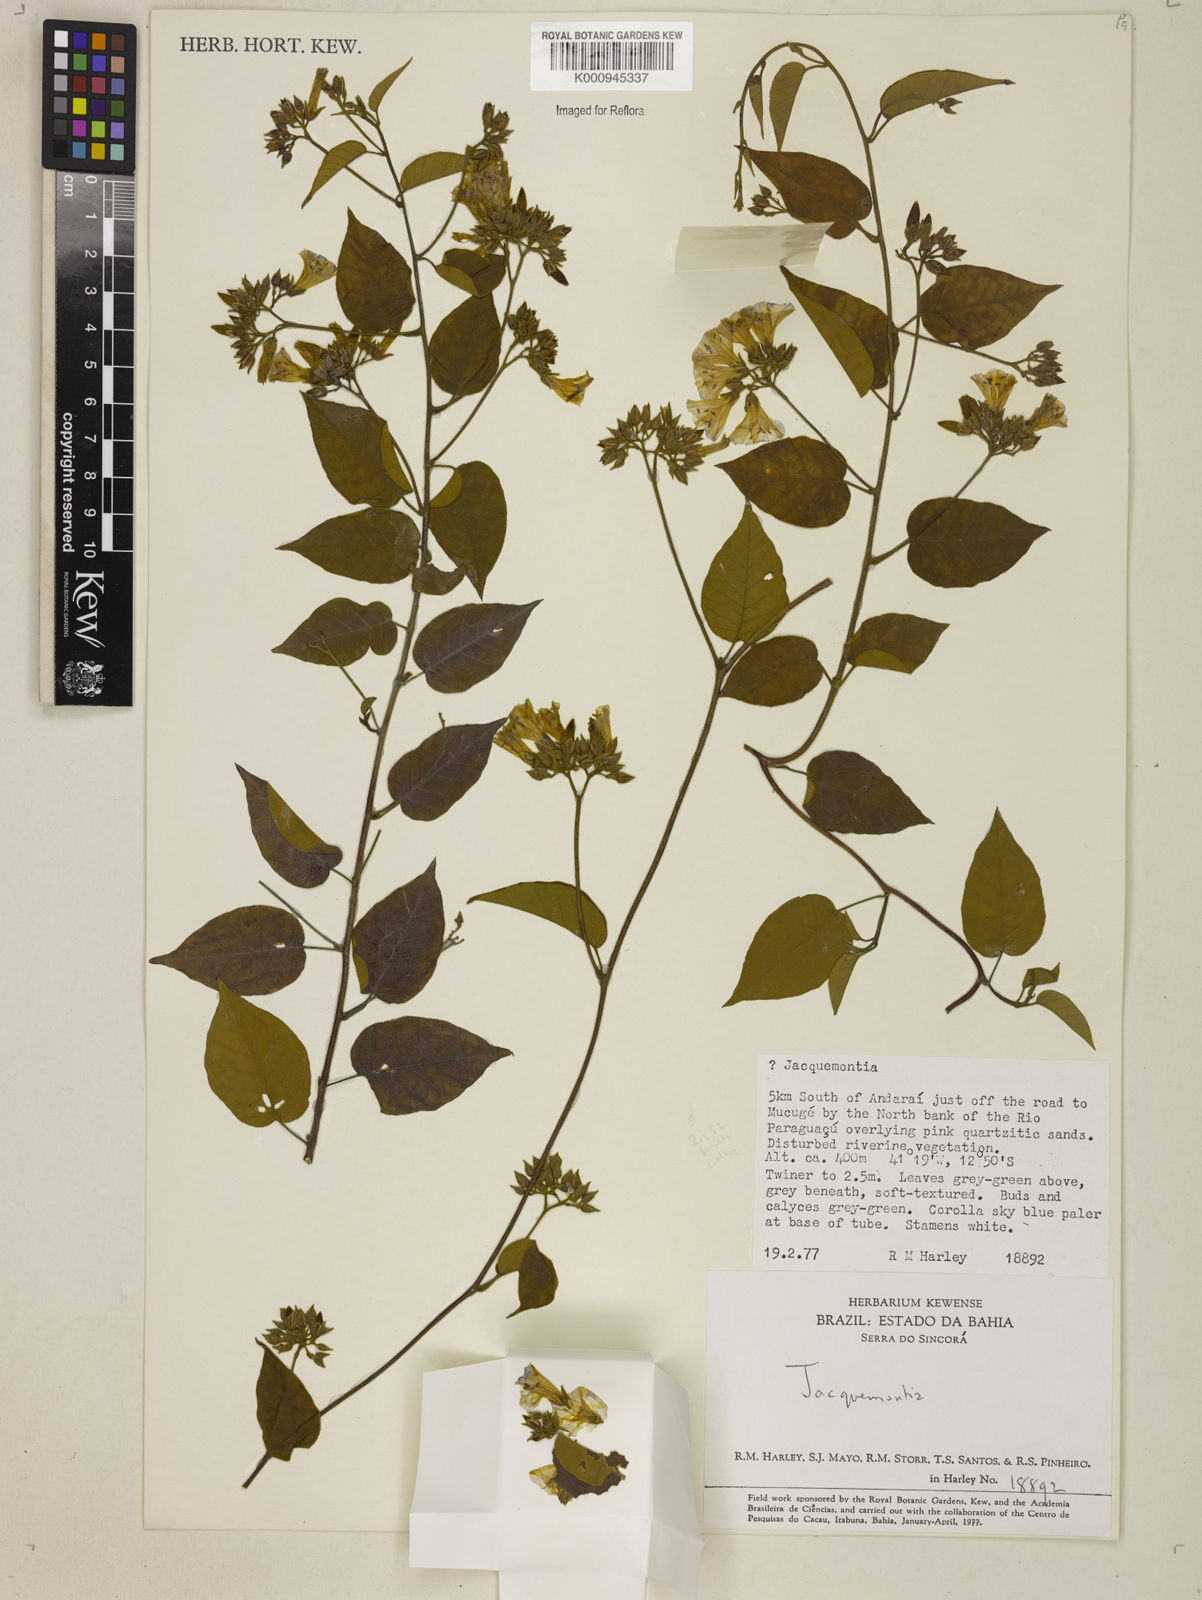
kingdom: Plantae
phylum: Tracheophyta
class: Magnoliopsida
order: Solanales
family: Convolvulaceae
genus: Jacquemontia
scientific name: Jacquemontia
